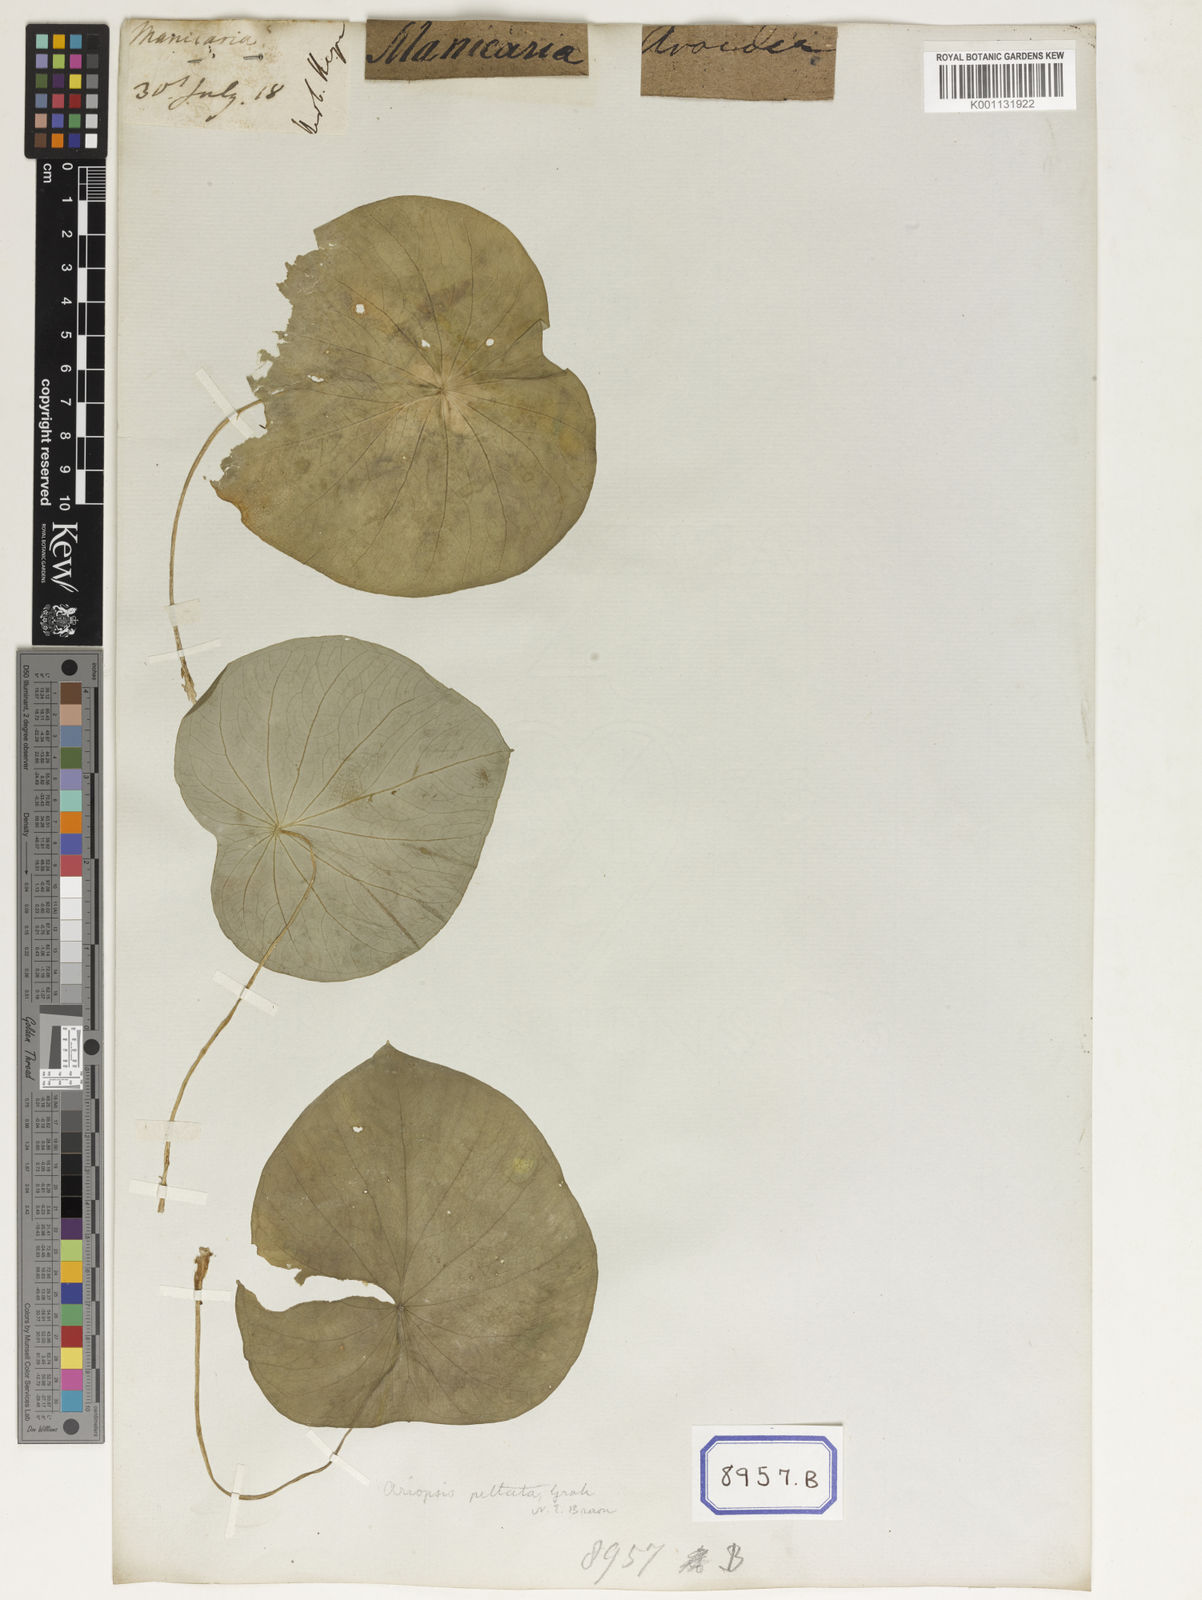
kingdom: Plantae
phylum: Tracheophyta
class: Liliopsida
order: Alismatales
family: Araceae
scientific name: Araceae
